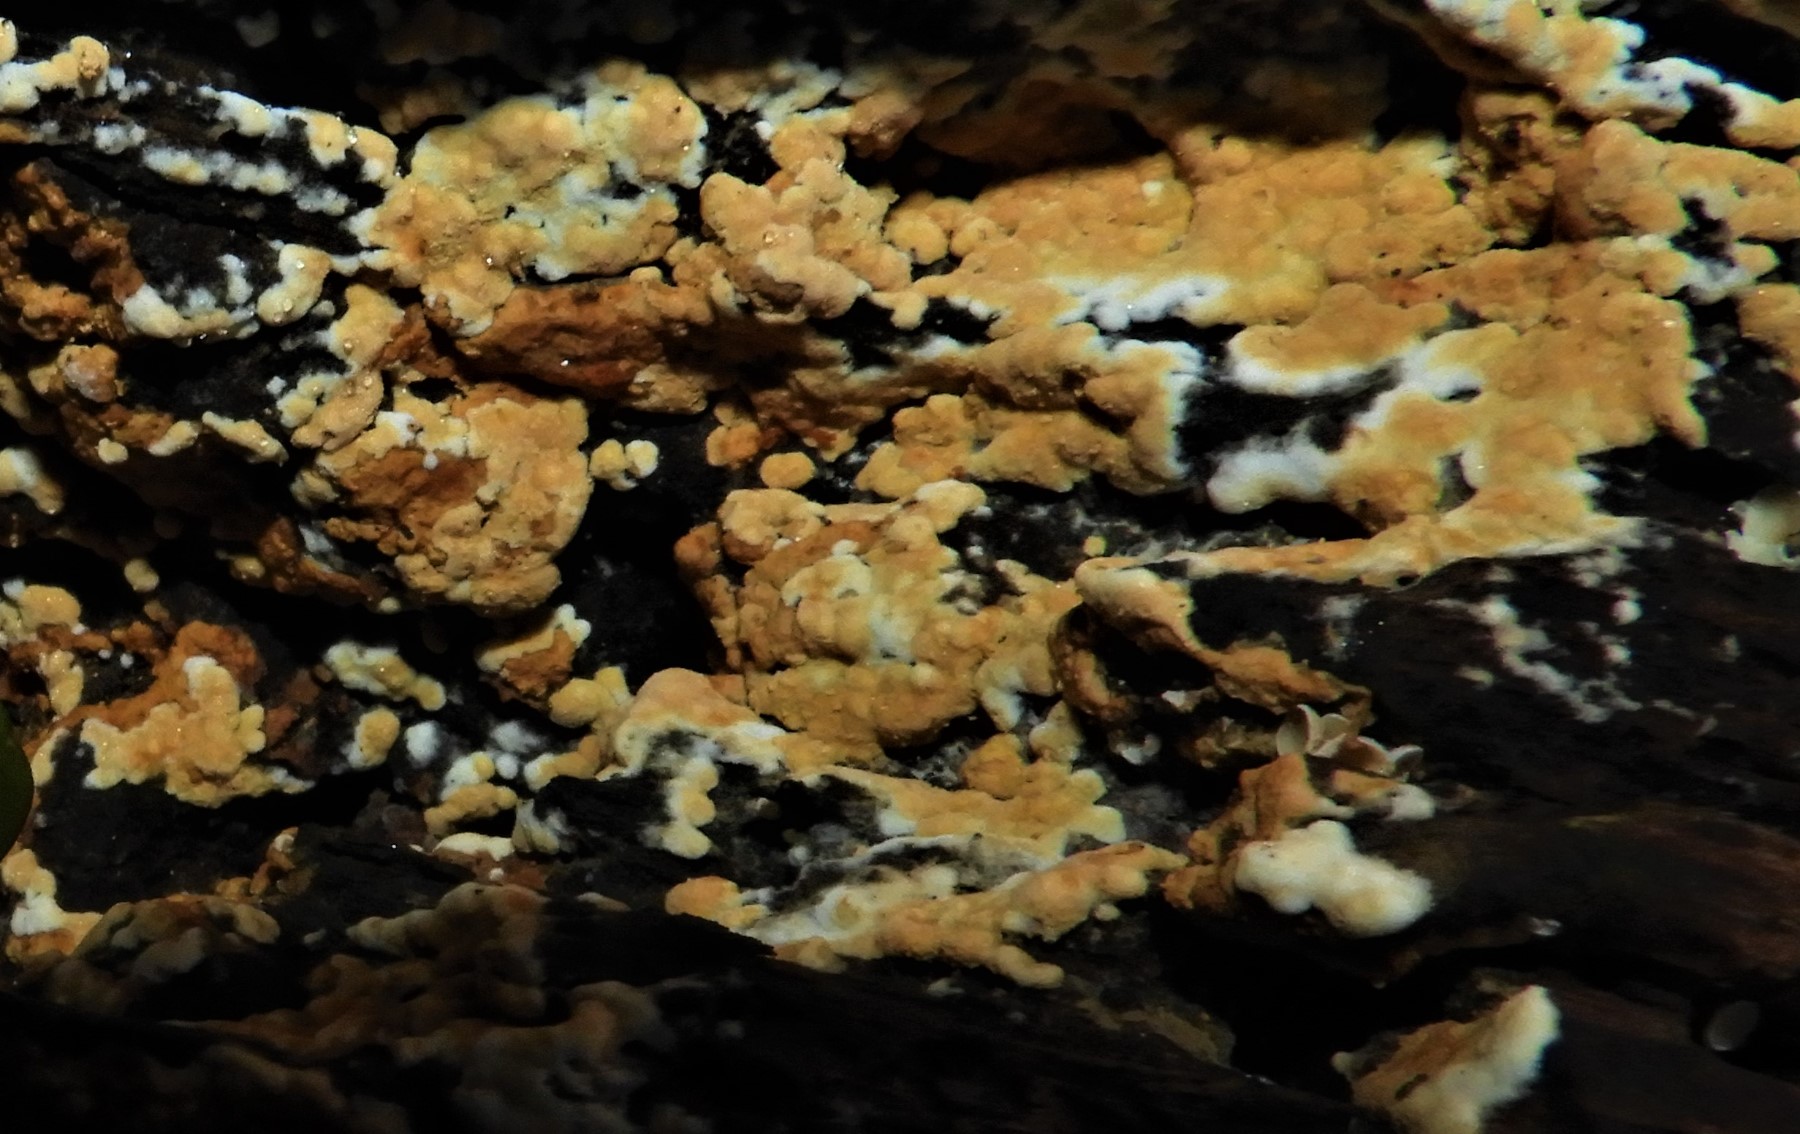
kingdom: Fungi
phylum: Basidiomycota
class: Agaricomycetes
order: Cantharellales
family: Botryobasidiaceae
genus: Botryobasidium
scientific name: Botryobasidium aureum
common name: gylden spindhinde
